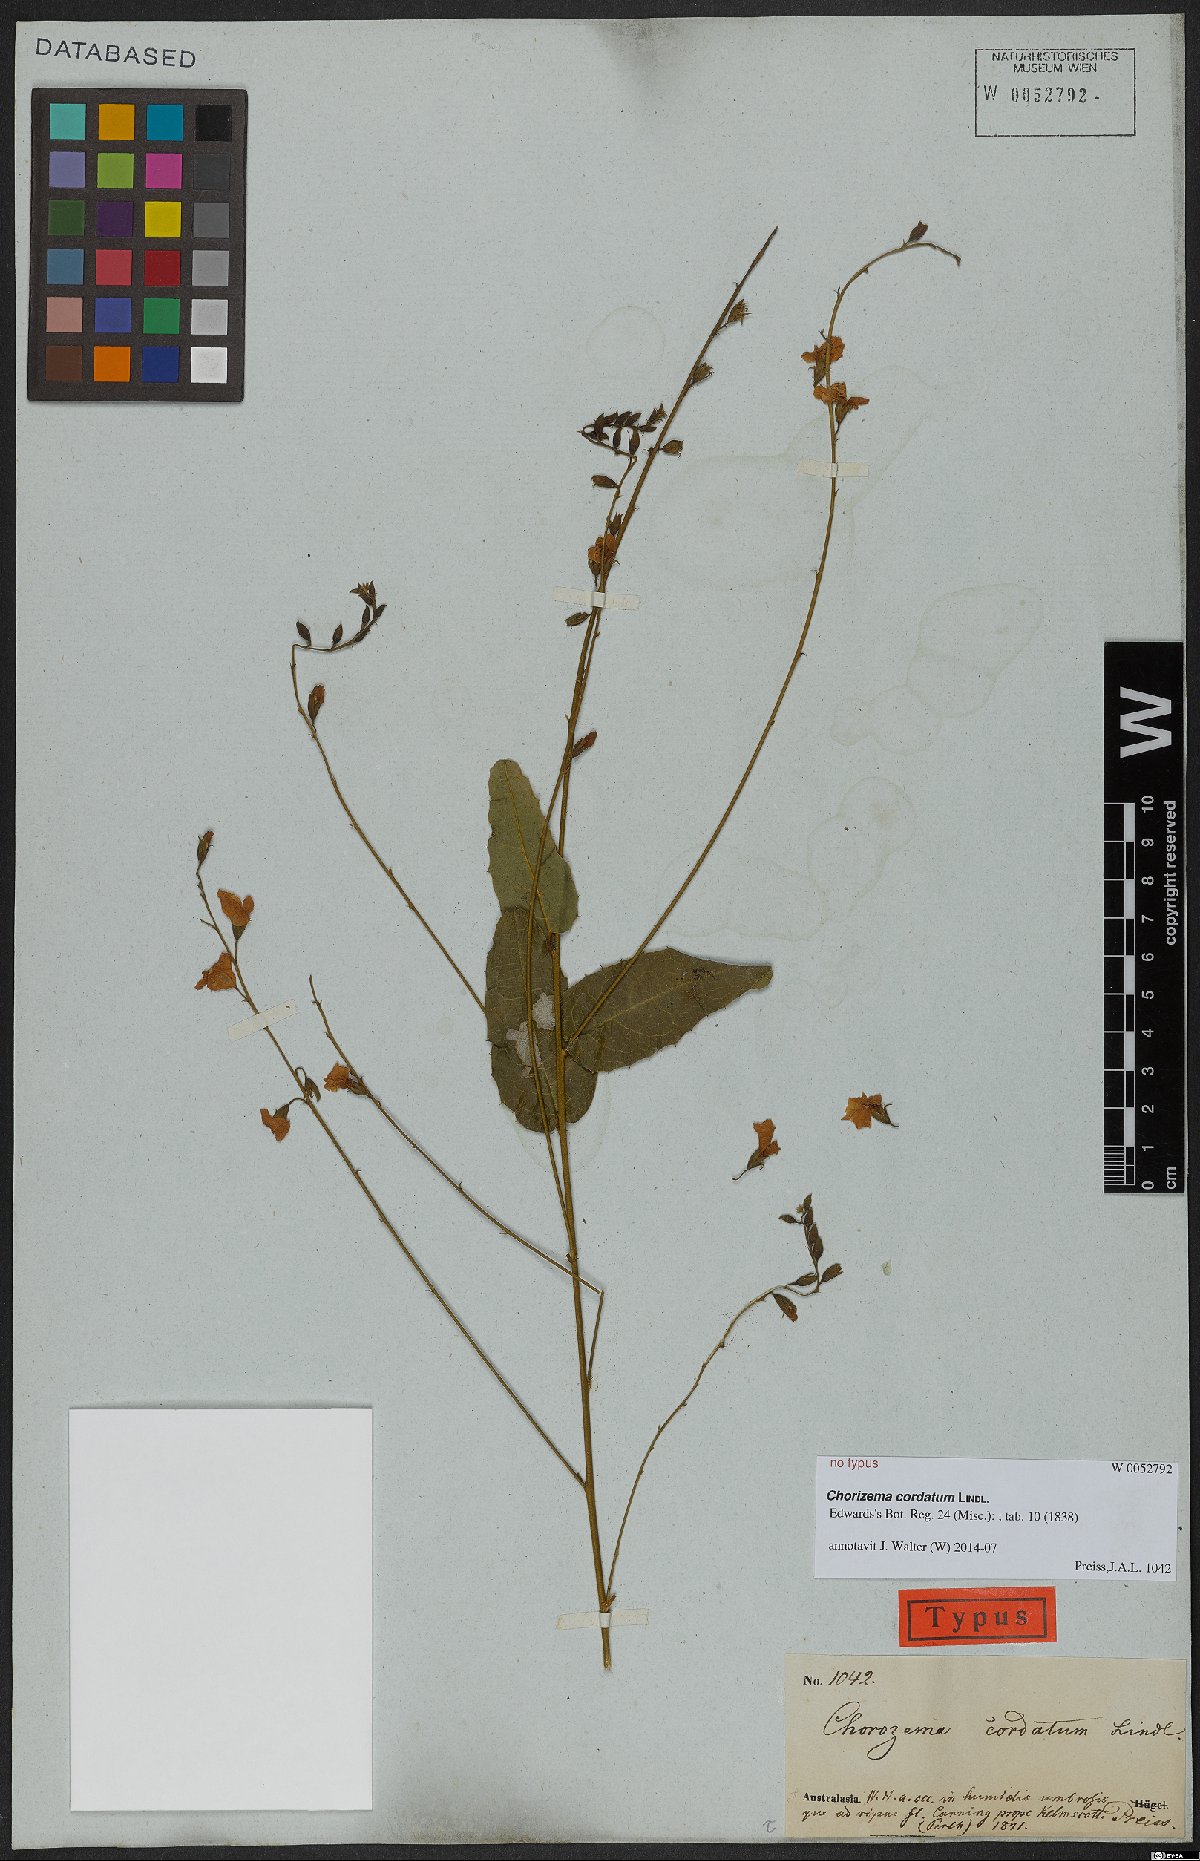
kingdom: Plantae
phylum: Tracheophyta
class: Magnoliopsida
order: Fabales
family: Fabaceae
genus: Chorizema
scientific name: Chorizema cordatum
